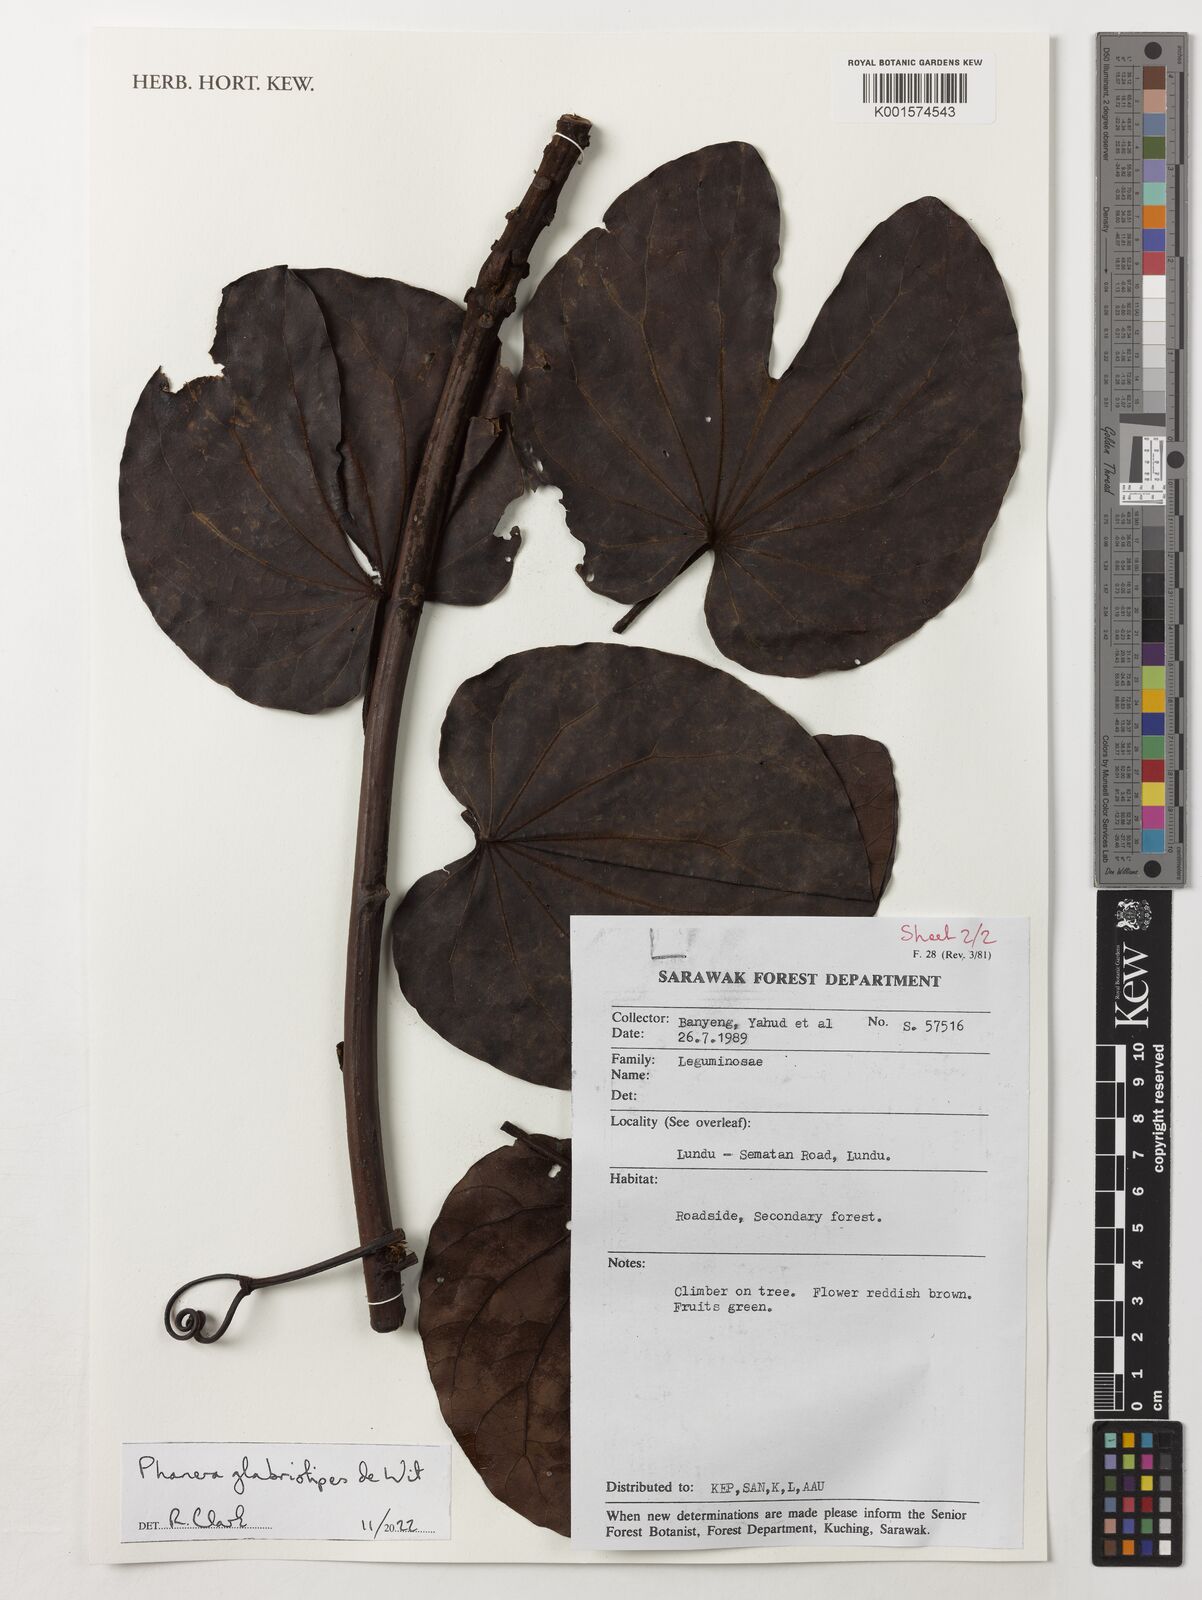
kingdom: Plantae
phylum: Tracheophyta
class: Magnoliopsida
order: Fabales
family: Fabaceae
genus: Phanera
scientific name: Phanera glabristipes
